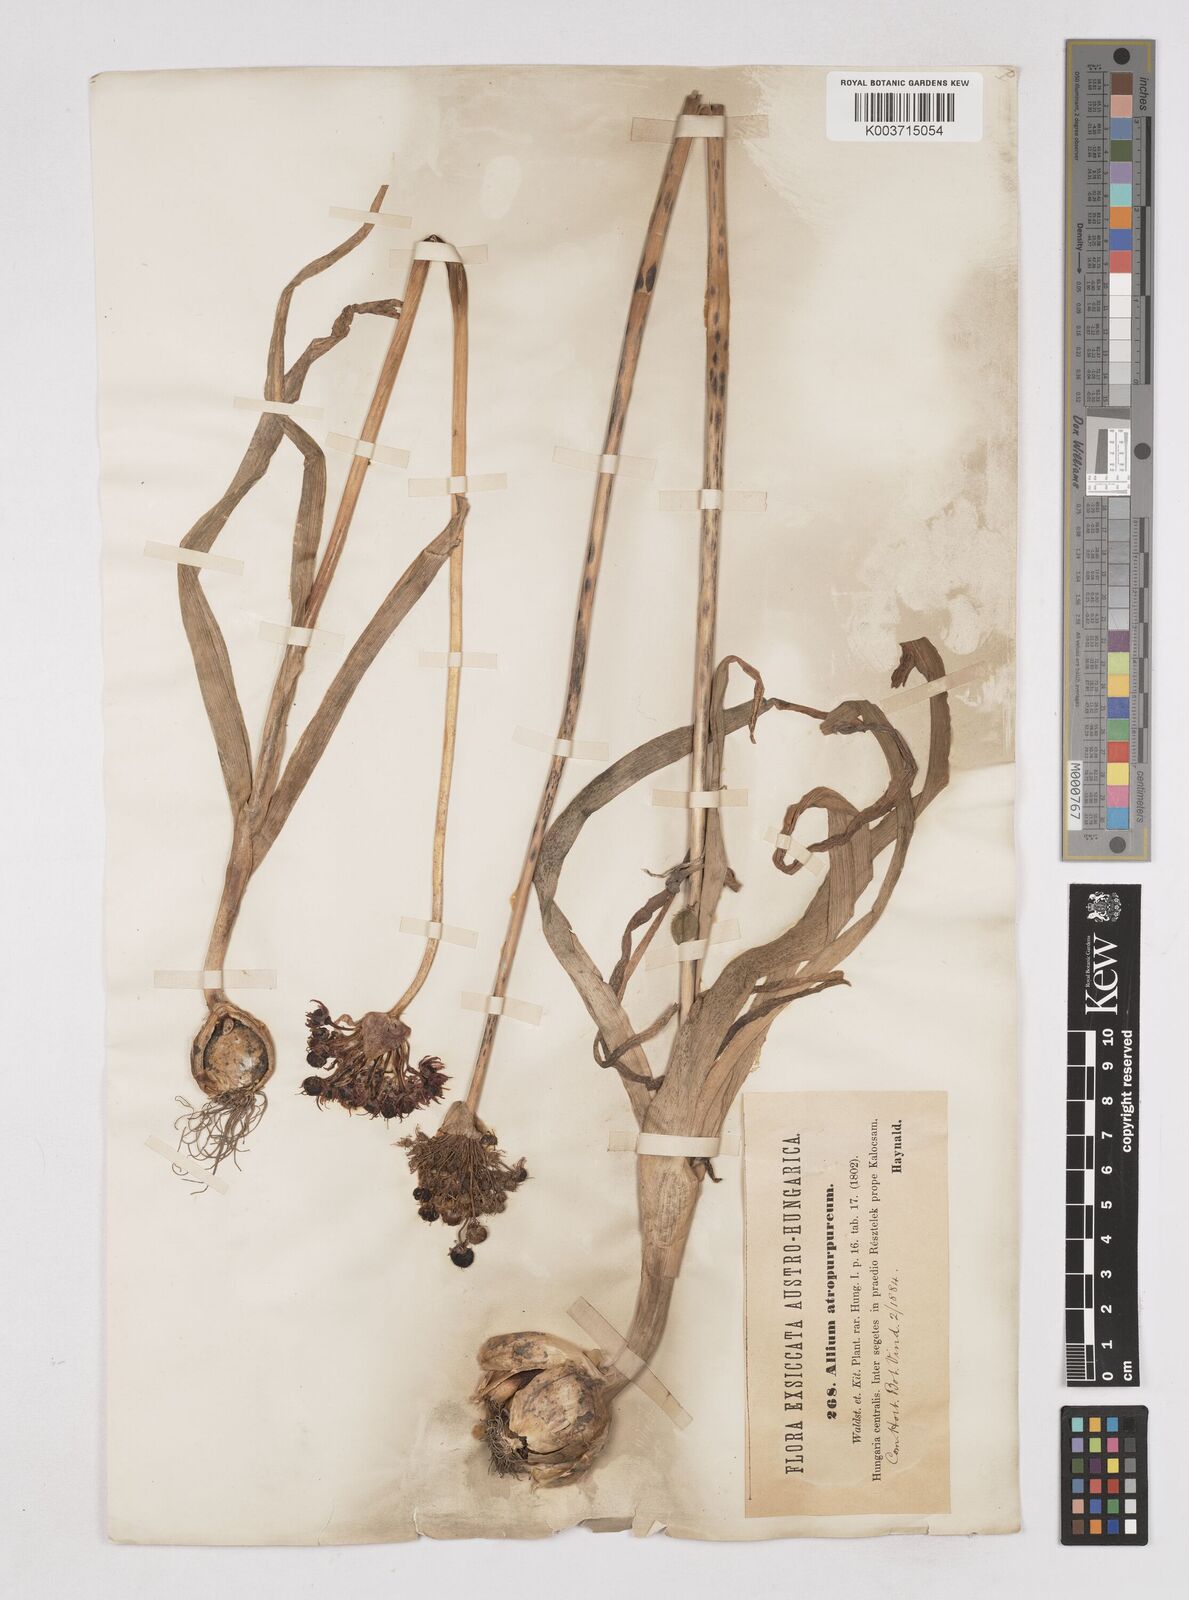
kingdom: Plantae
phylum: Tracheophyta
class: Liliopsida
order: Asparagales
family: Amaryllidaceae
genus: Allium
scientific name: Allium atropurpureum
